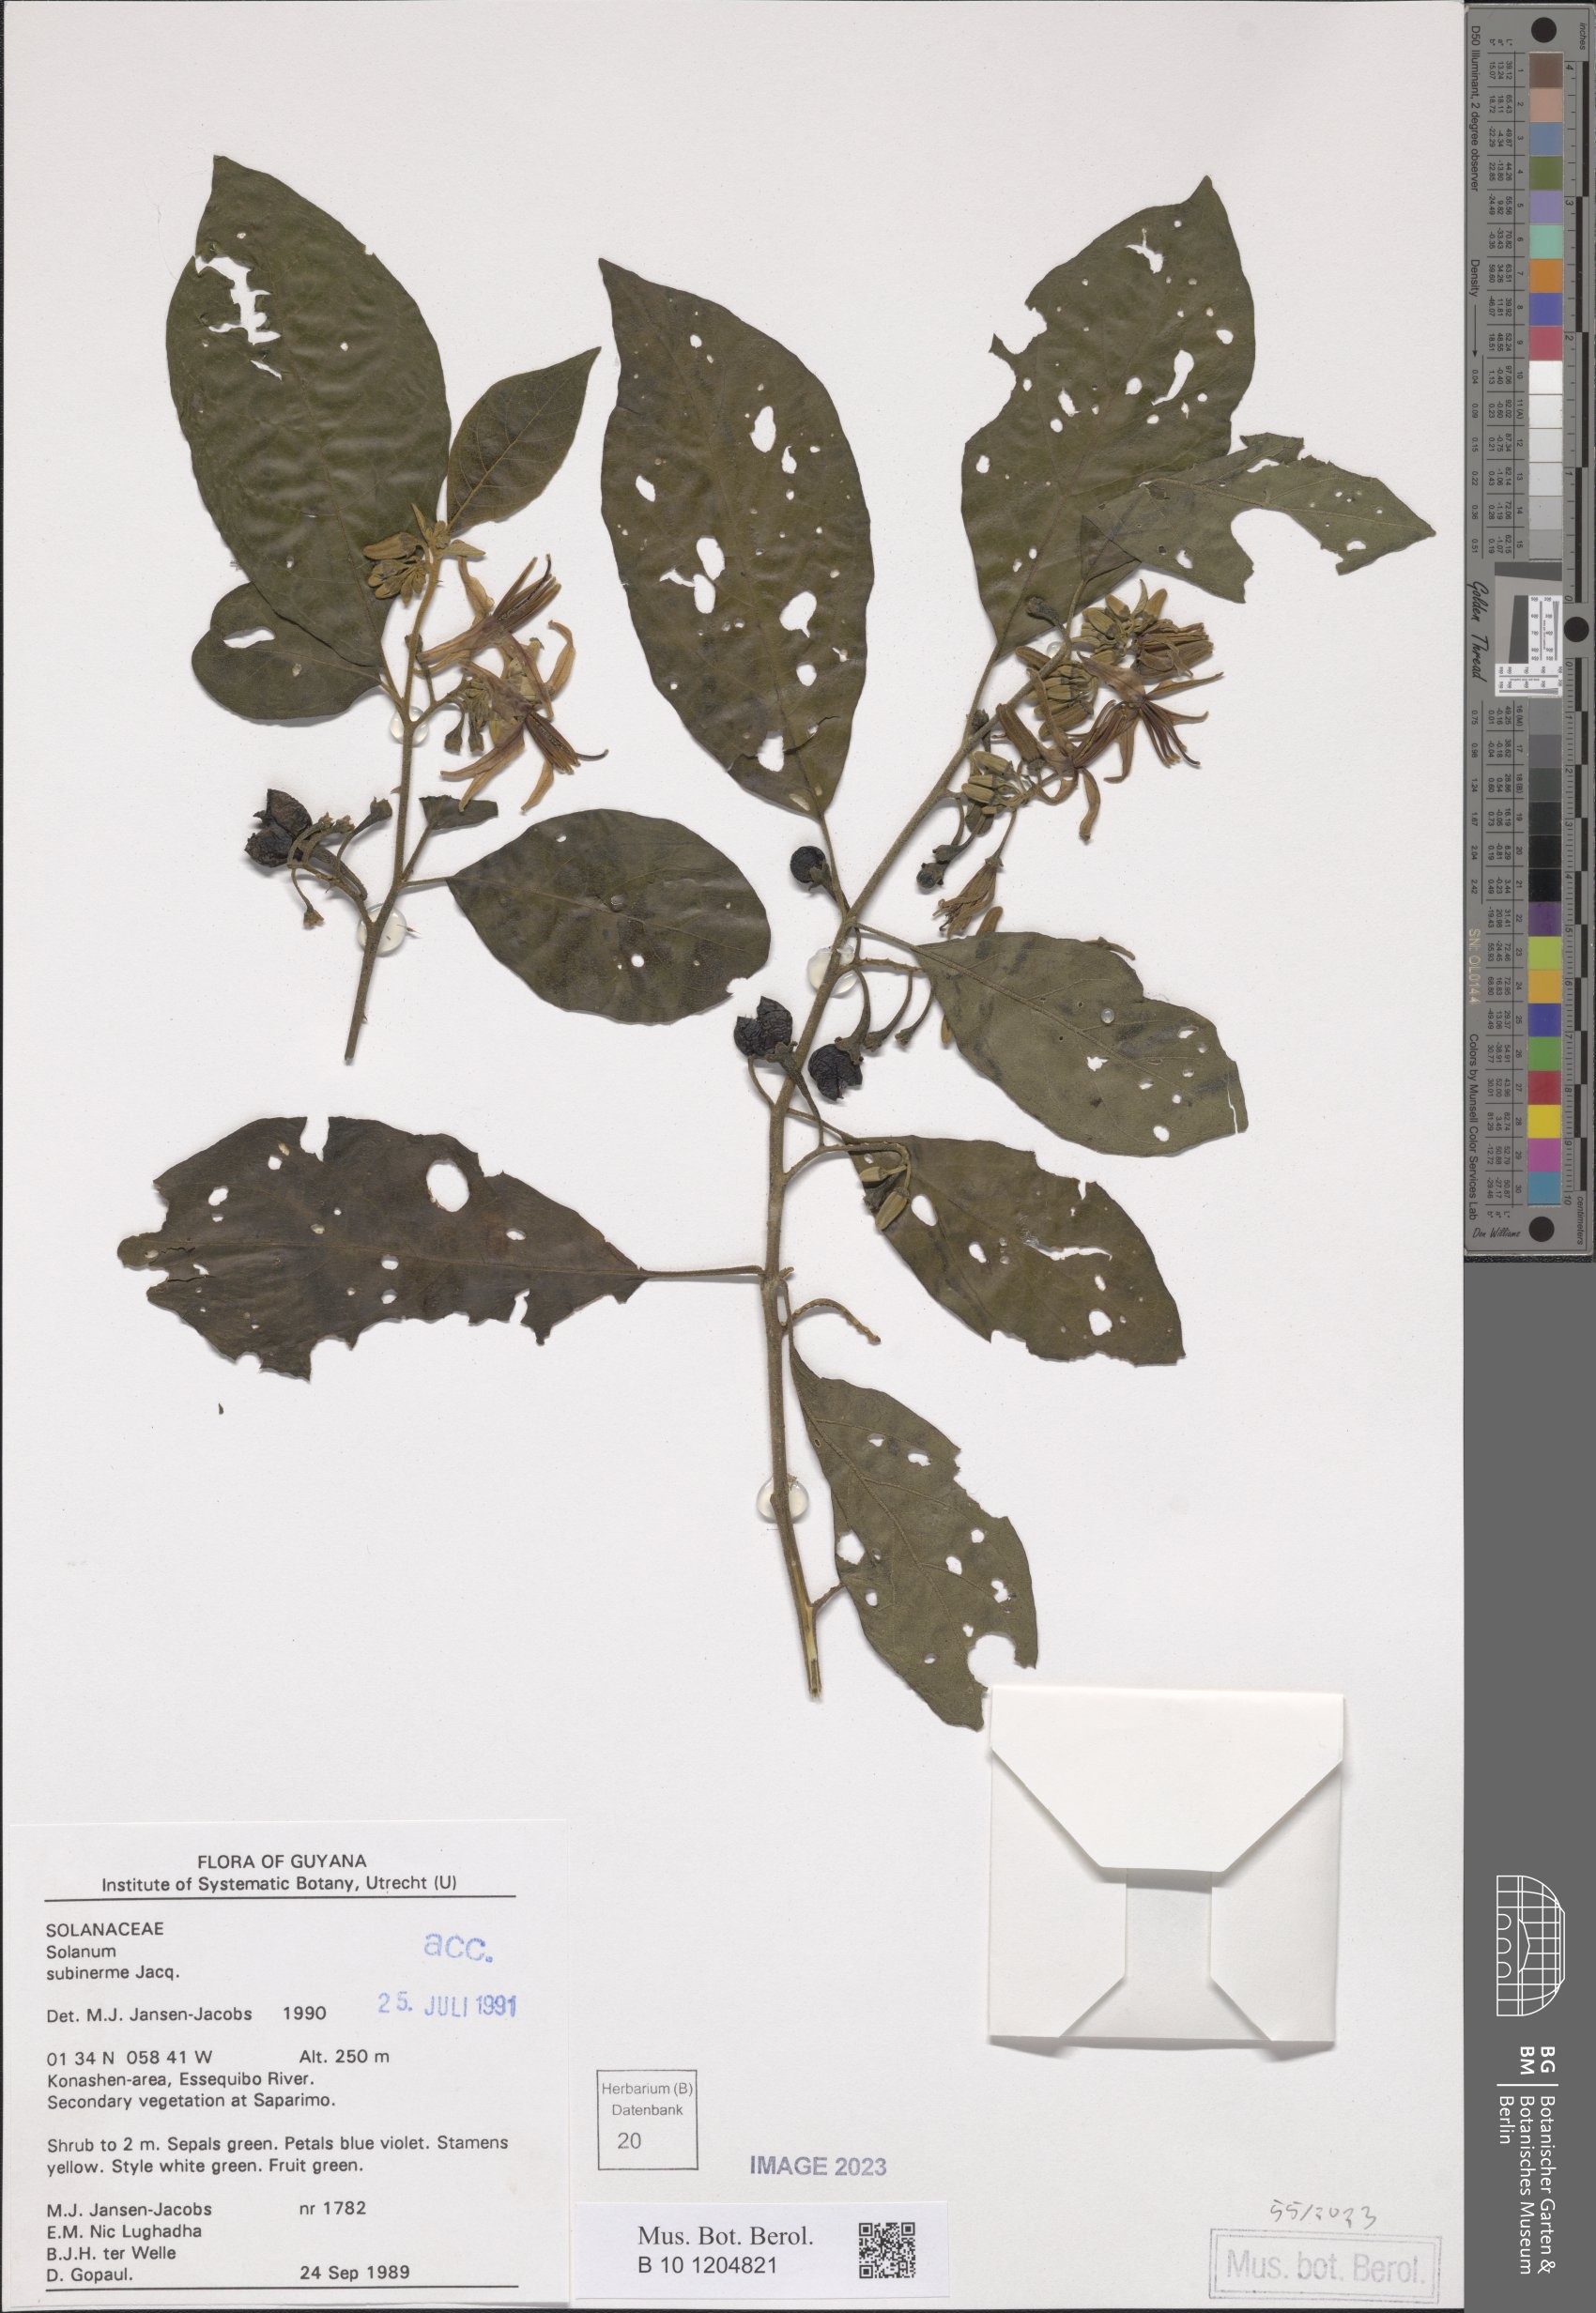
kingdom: Plantae
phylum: Tracheophyta
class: Magnoliopsida
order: Solanales
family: Solanaceae
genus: Solanum
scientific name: Solanum subinerme
